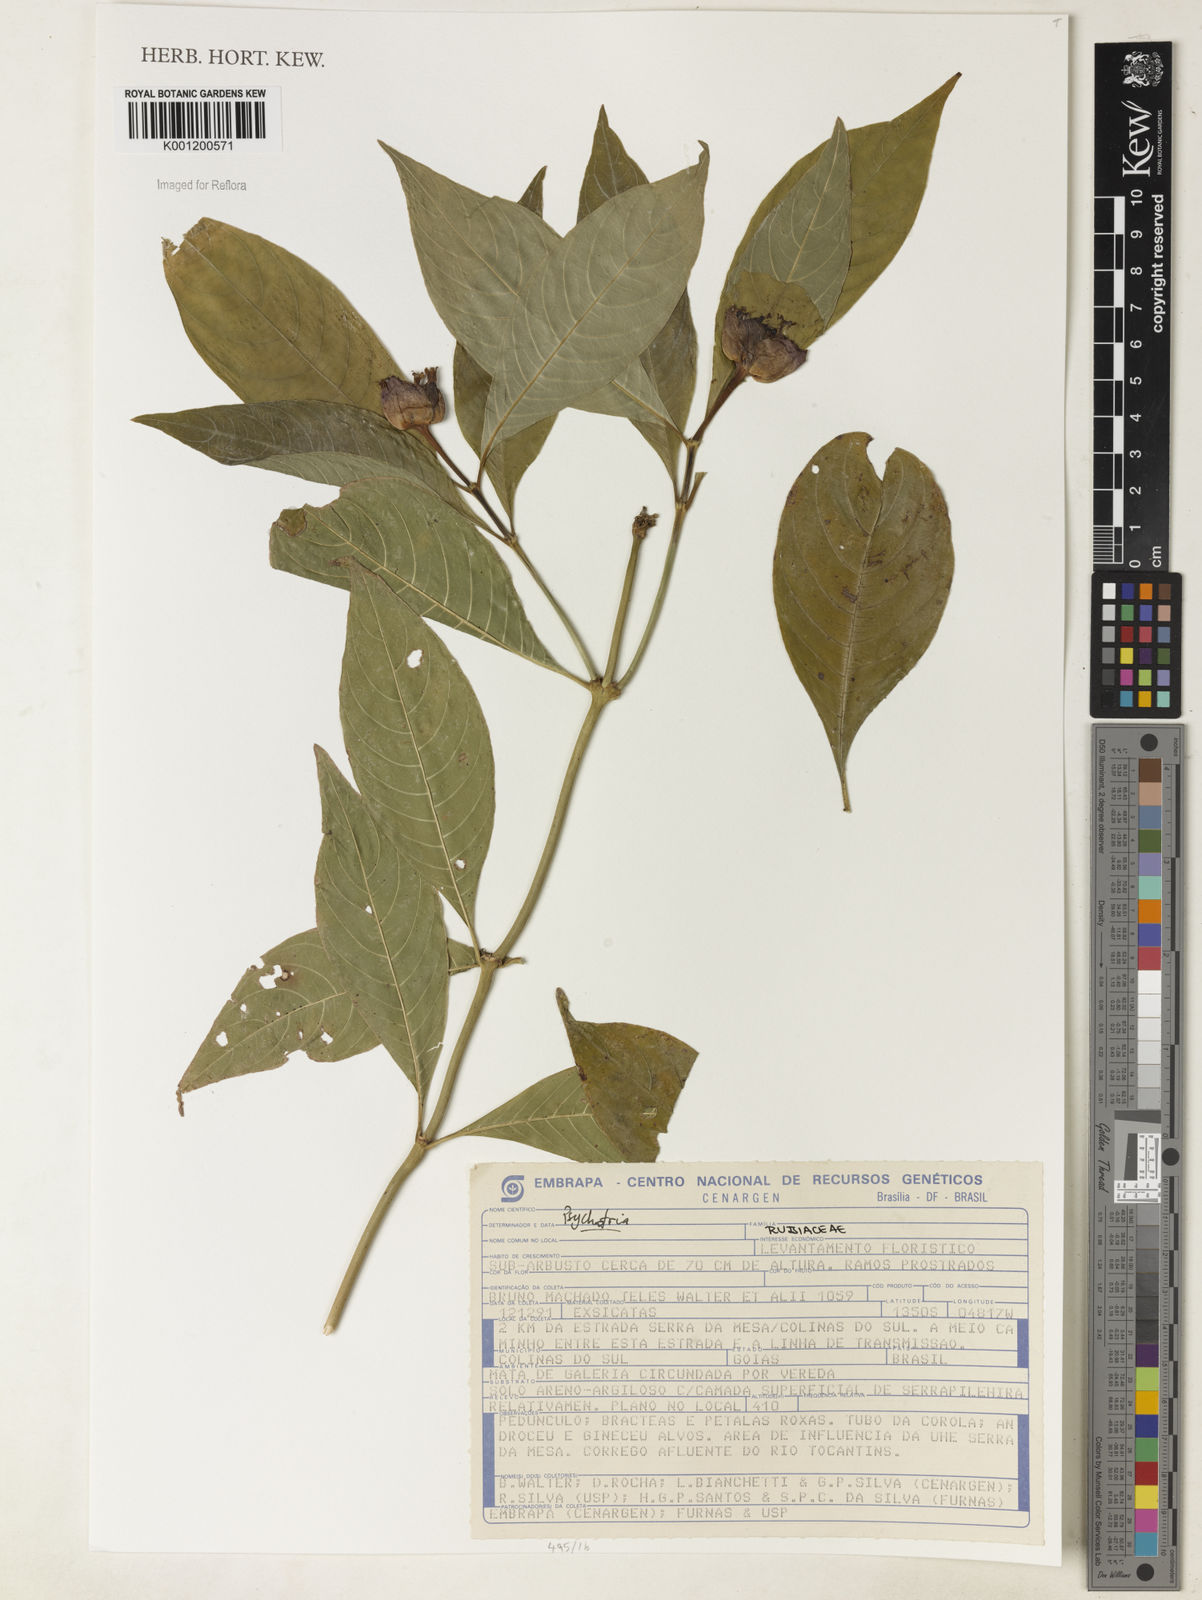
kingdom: Plantae
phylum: Tracheophyta
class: Magnoliopsida
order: Gentianales
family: Rubiaceae
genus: Psychotria
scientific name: Psychotria
